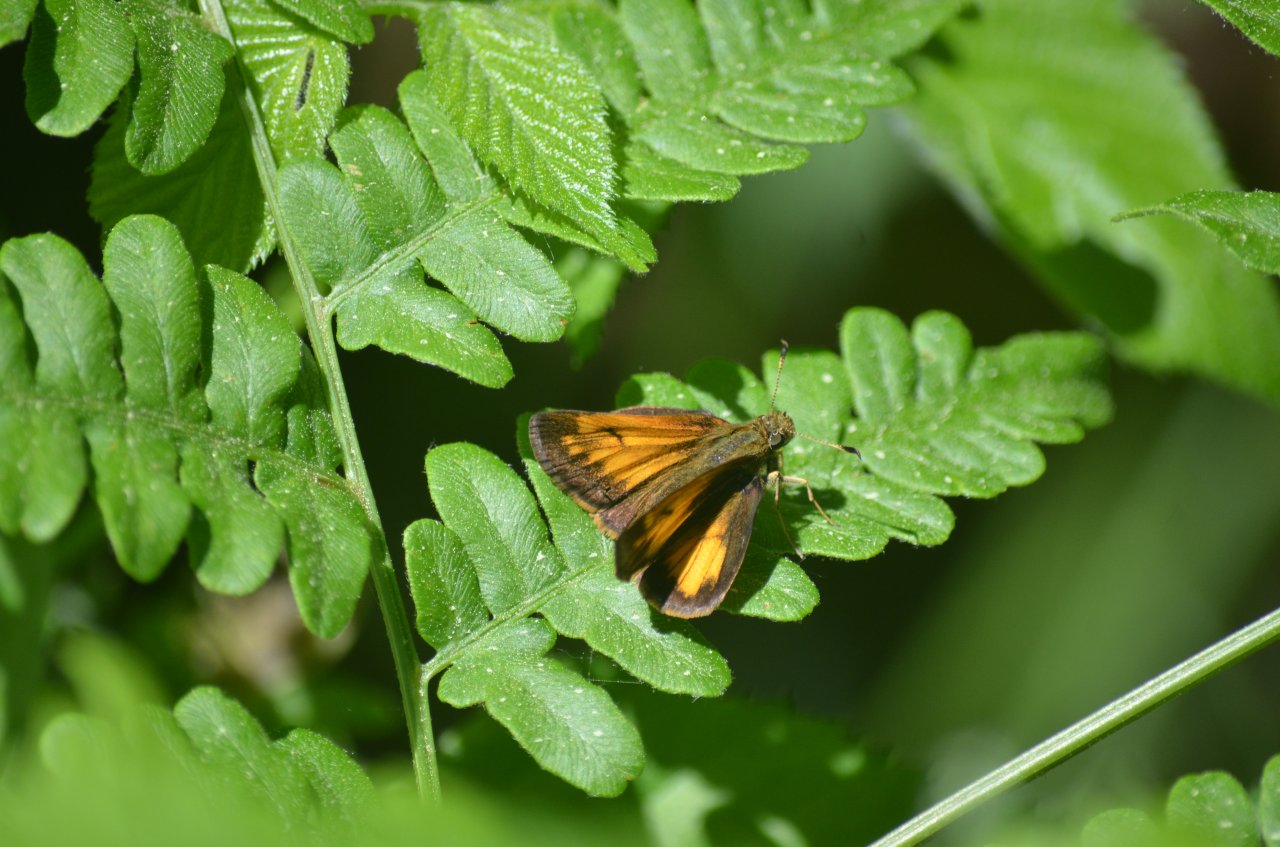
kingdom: Animalia
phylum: Arthropoda
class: Insecta
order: Lepidoptera
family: Hesperiidae
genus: Lon
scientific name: Lon hobomok
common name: Hobomok Skipper
